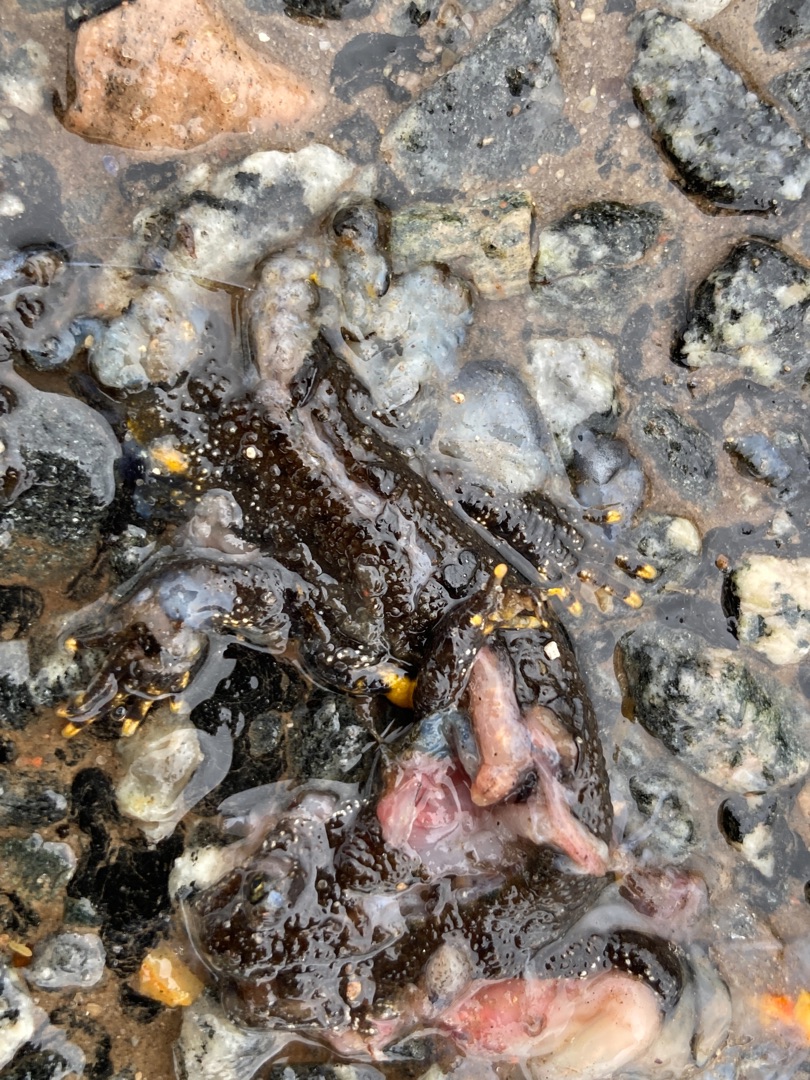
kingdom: Animalia
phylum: Chordata
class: Amphibia
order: Caudata
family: Salamandridae
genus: Triturus
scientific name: Triturus cristatus
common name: Stor vandsalamander
